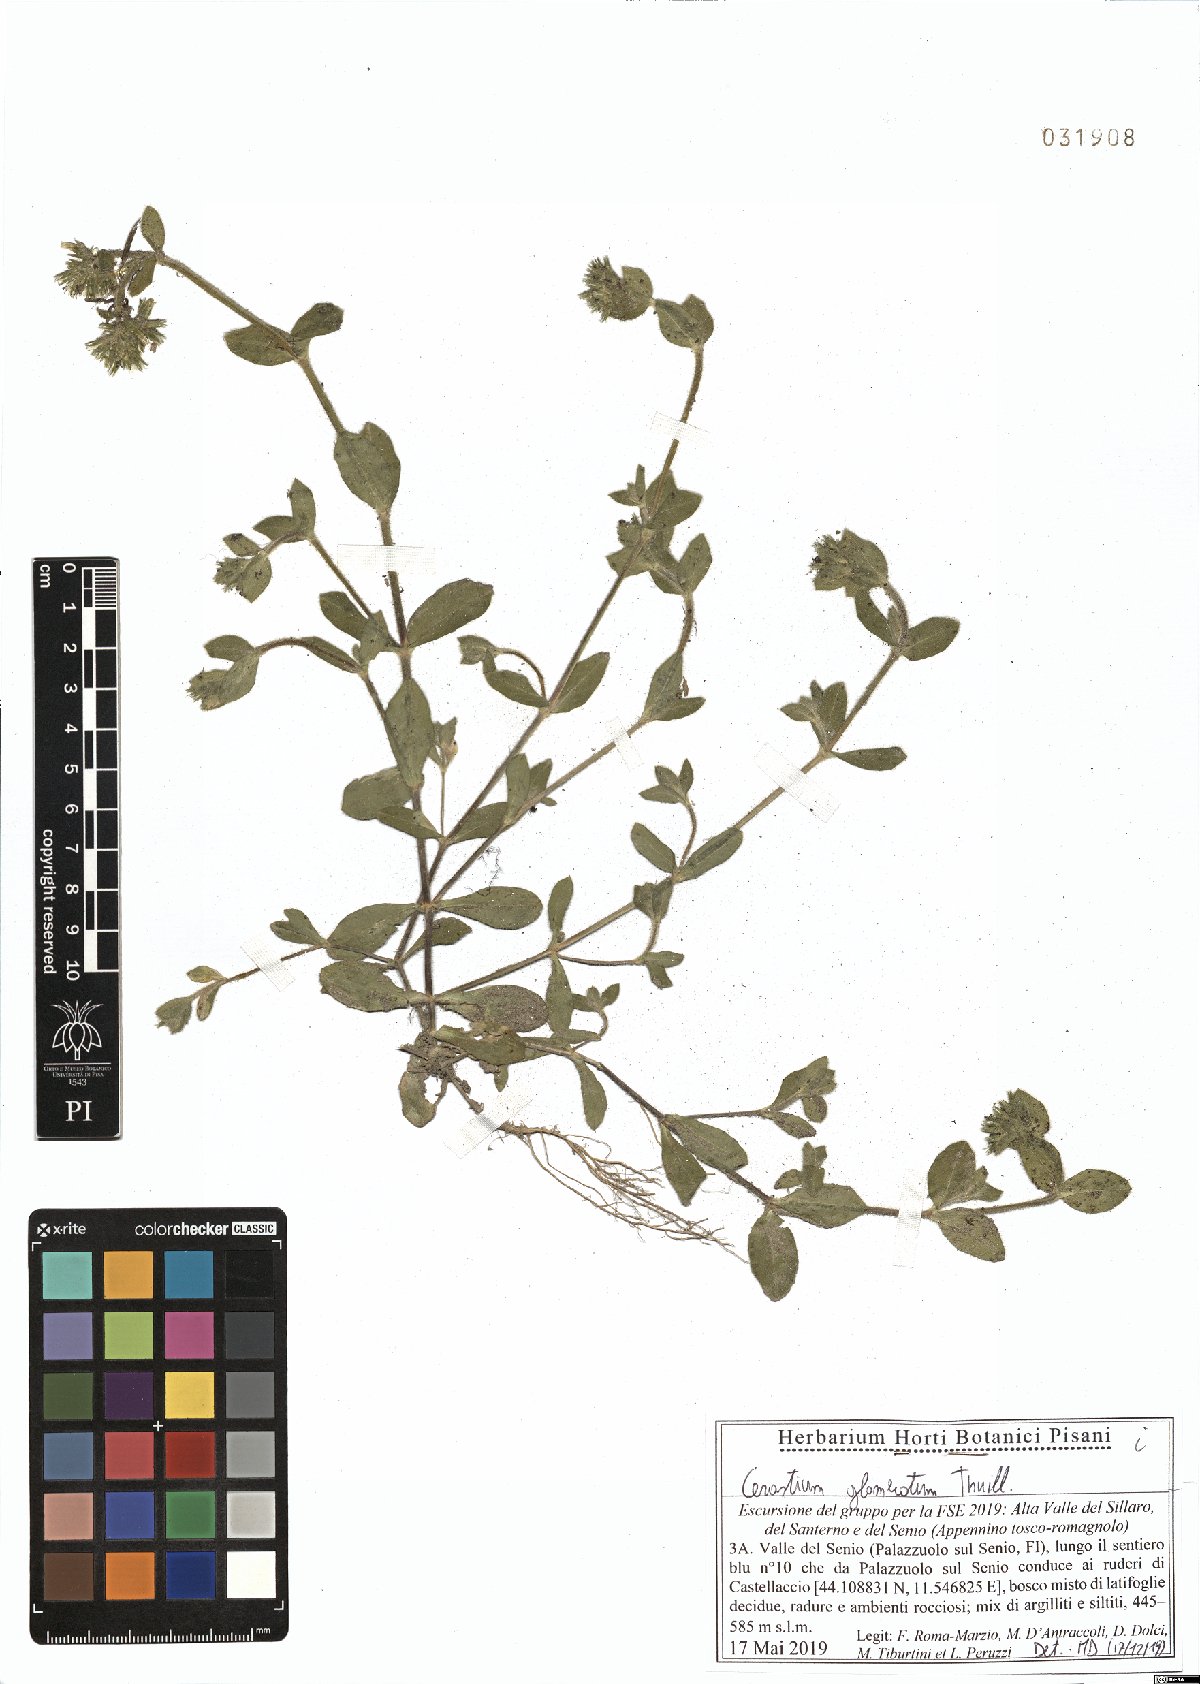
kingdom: Plantae
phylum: Tracheophyta
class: Magnoliopsida
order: Caryophyllales
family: Caryophyllaceae
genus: Cerastium
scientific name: Cerastium glomeratum
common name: Sticky chickweed
